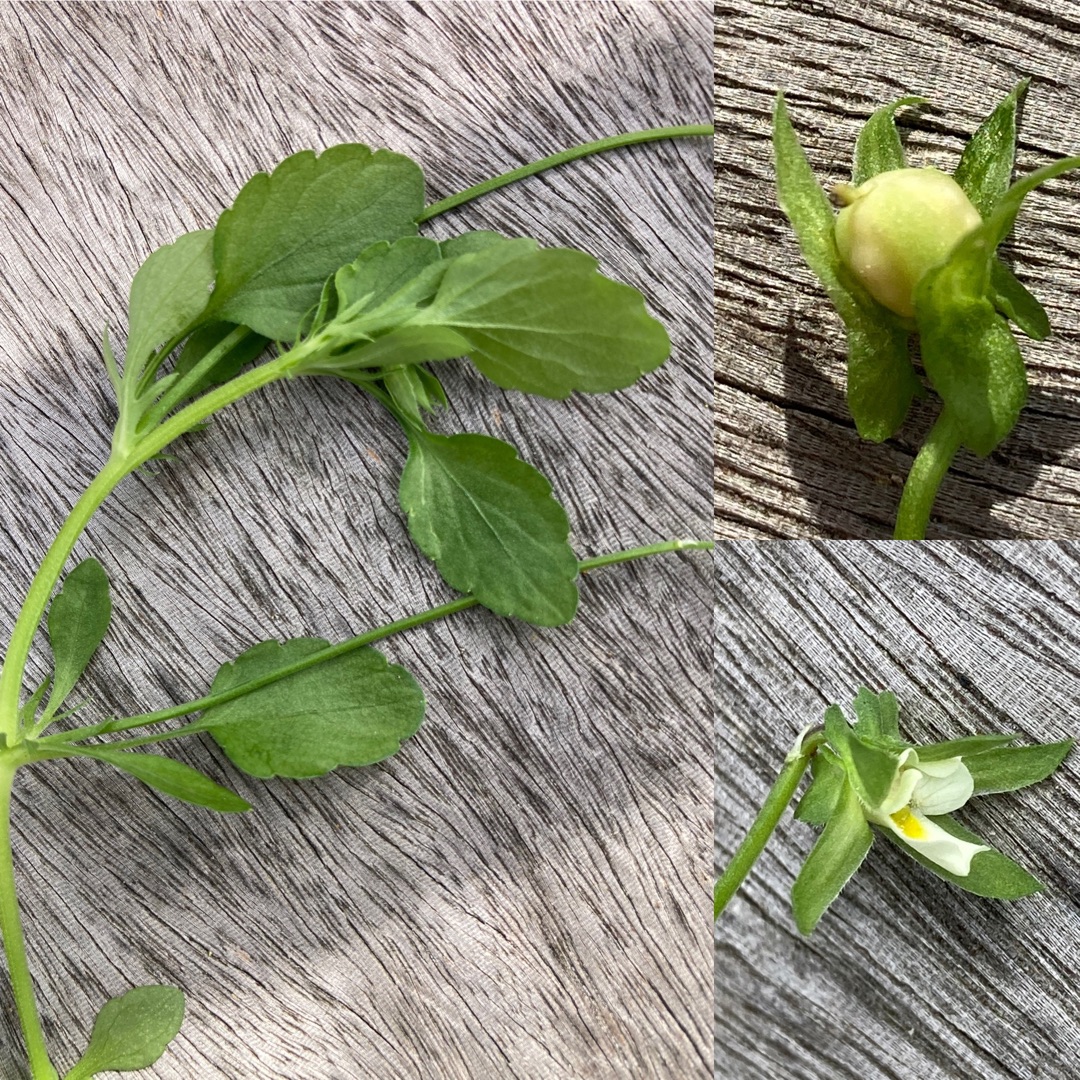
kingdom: Plantae
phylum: Tracheophyta
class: Magnoliopsida
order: Malpighiales
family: Violaceae
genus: Viola
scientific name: Viola arvensis
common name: Ager-stedmoderblomst
